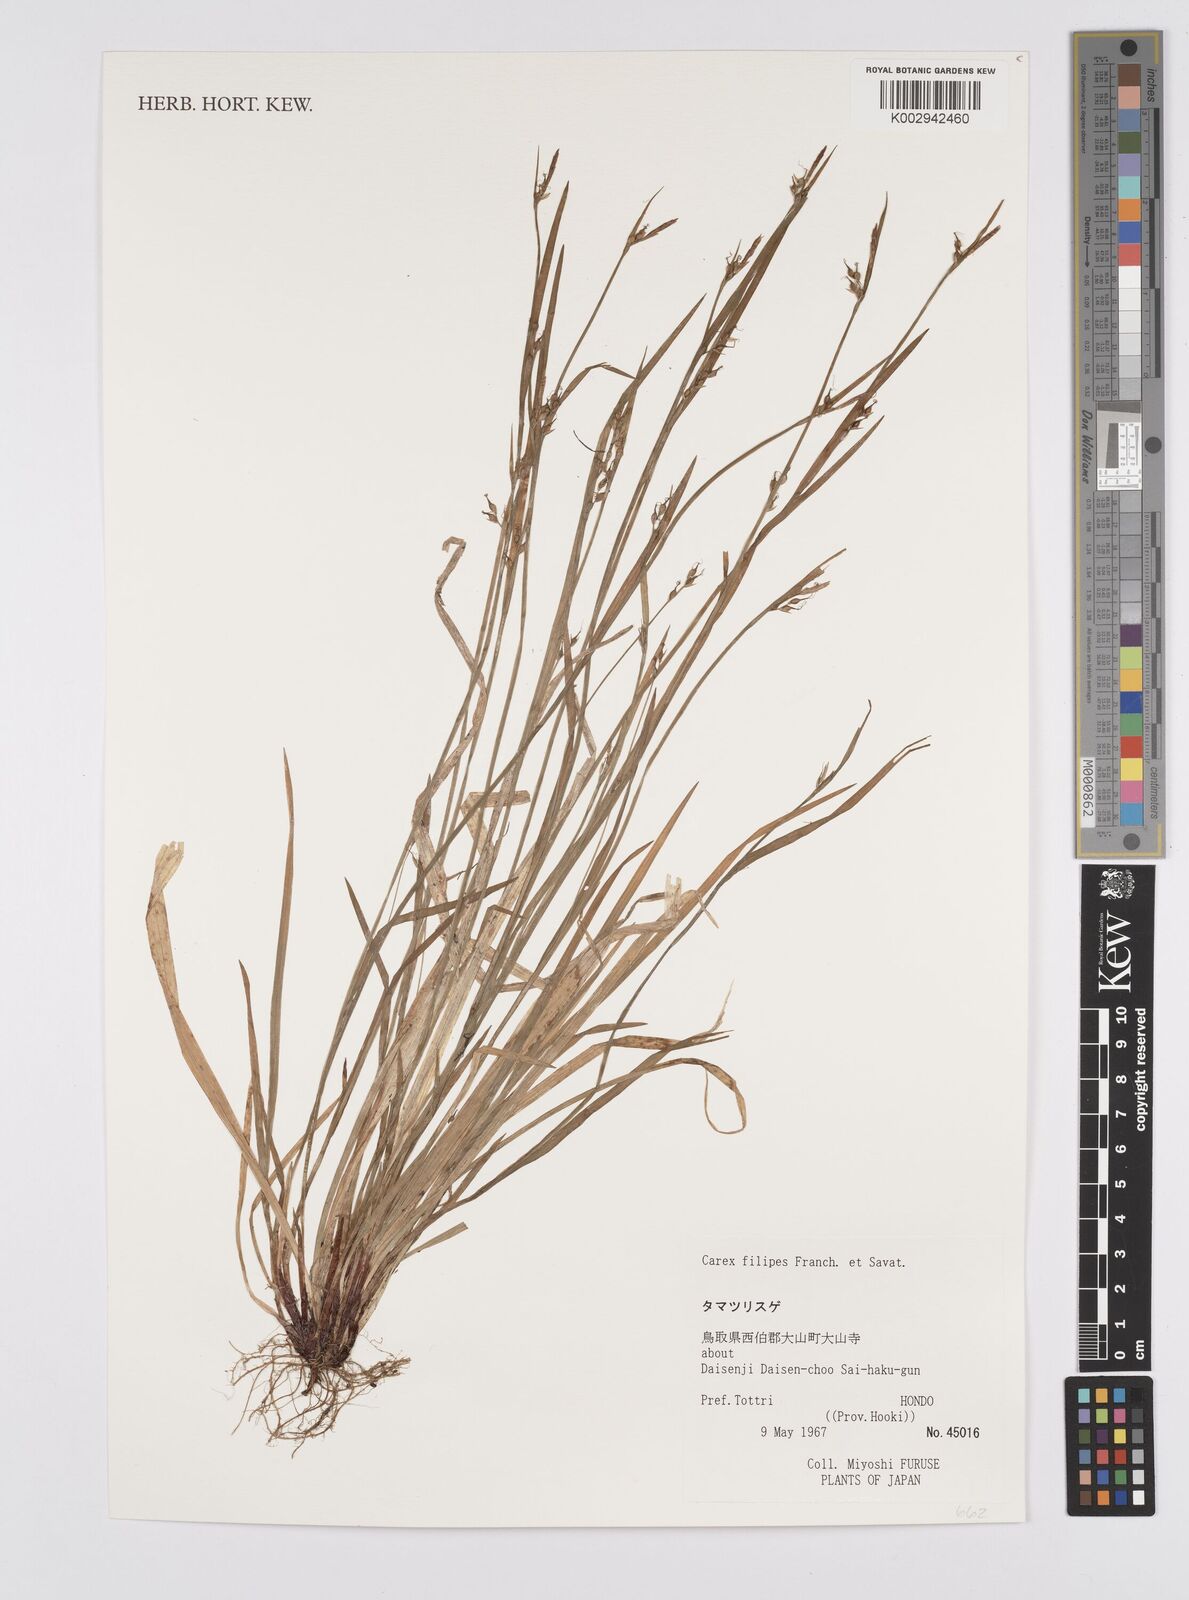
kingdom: Plantae
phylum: Tracheophyta
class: Liliopsida
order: Poales
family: Cyperaceae
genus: Carex
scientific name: Carex filipes
